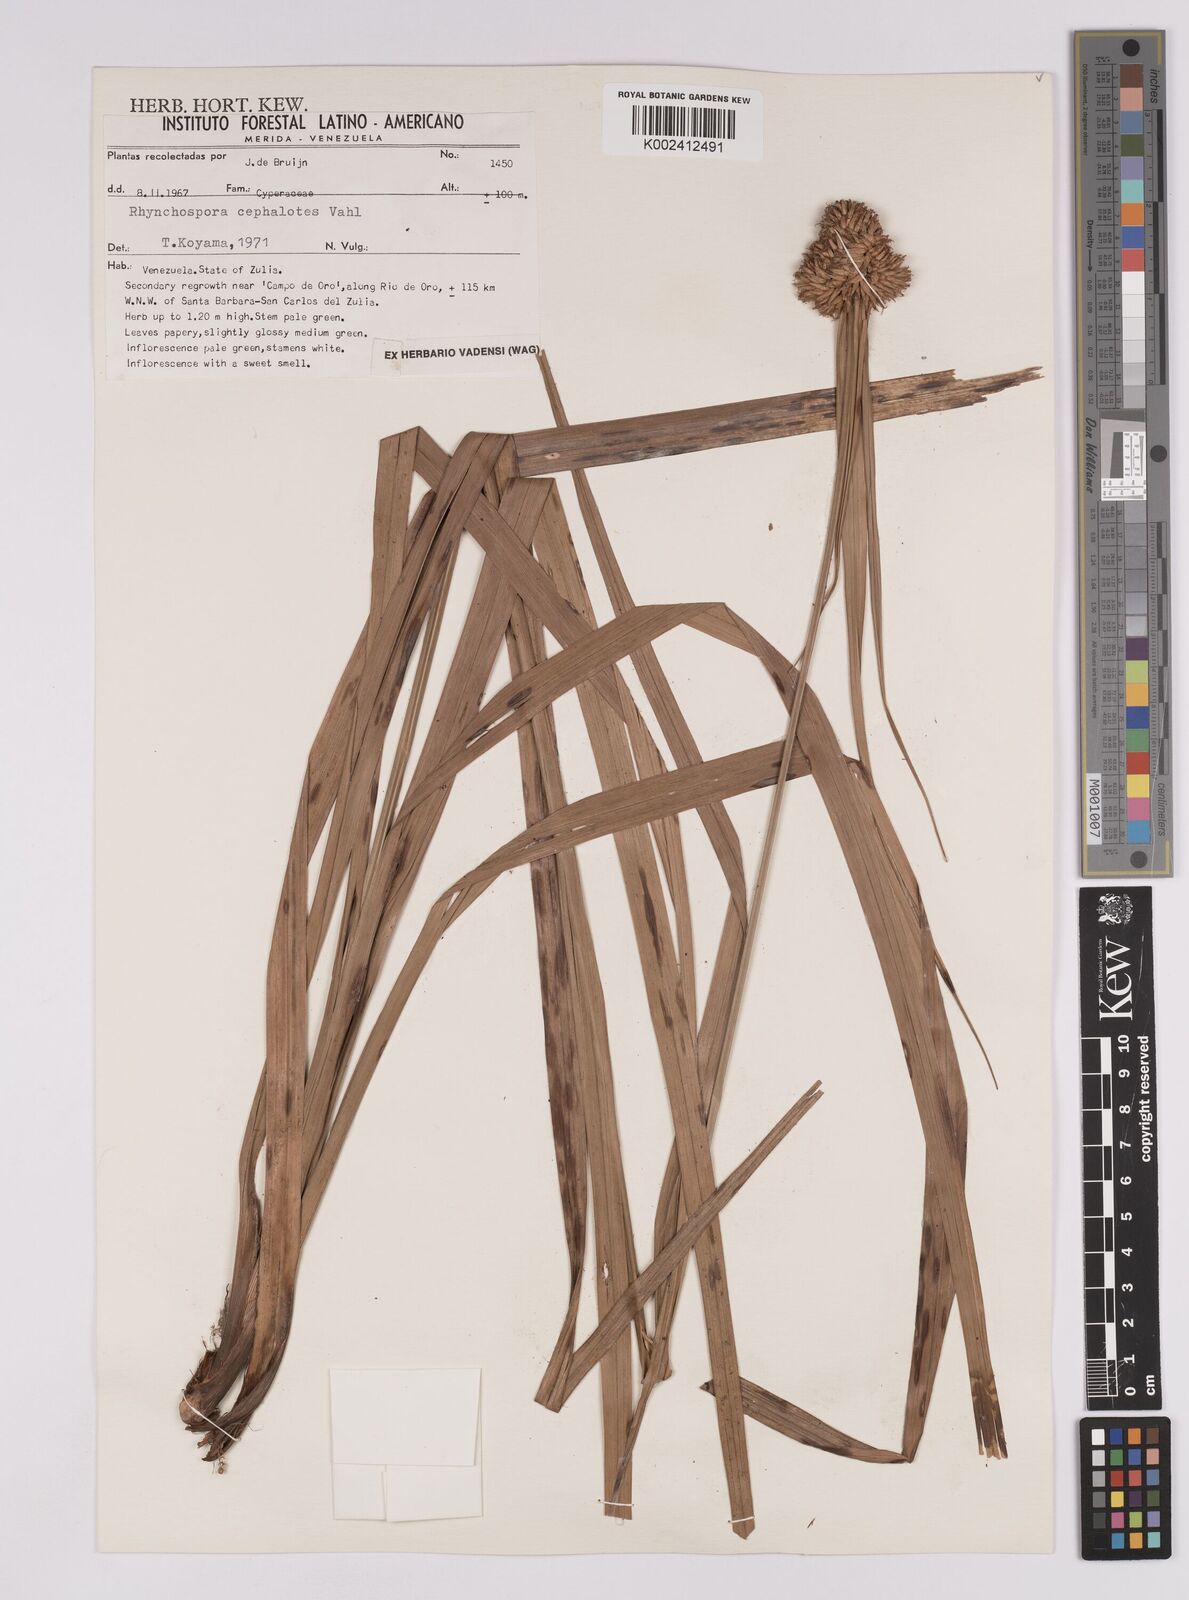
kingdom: Plantae
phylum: Tracheophyta
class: Liliopsida
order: Poales
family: Cyperaceae
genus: Rhynchospora
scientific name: Rhynchospora cephalotes
